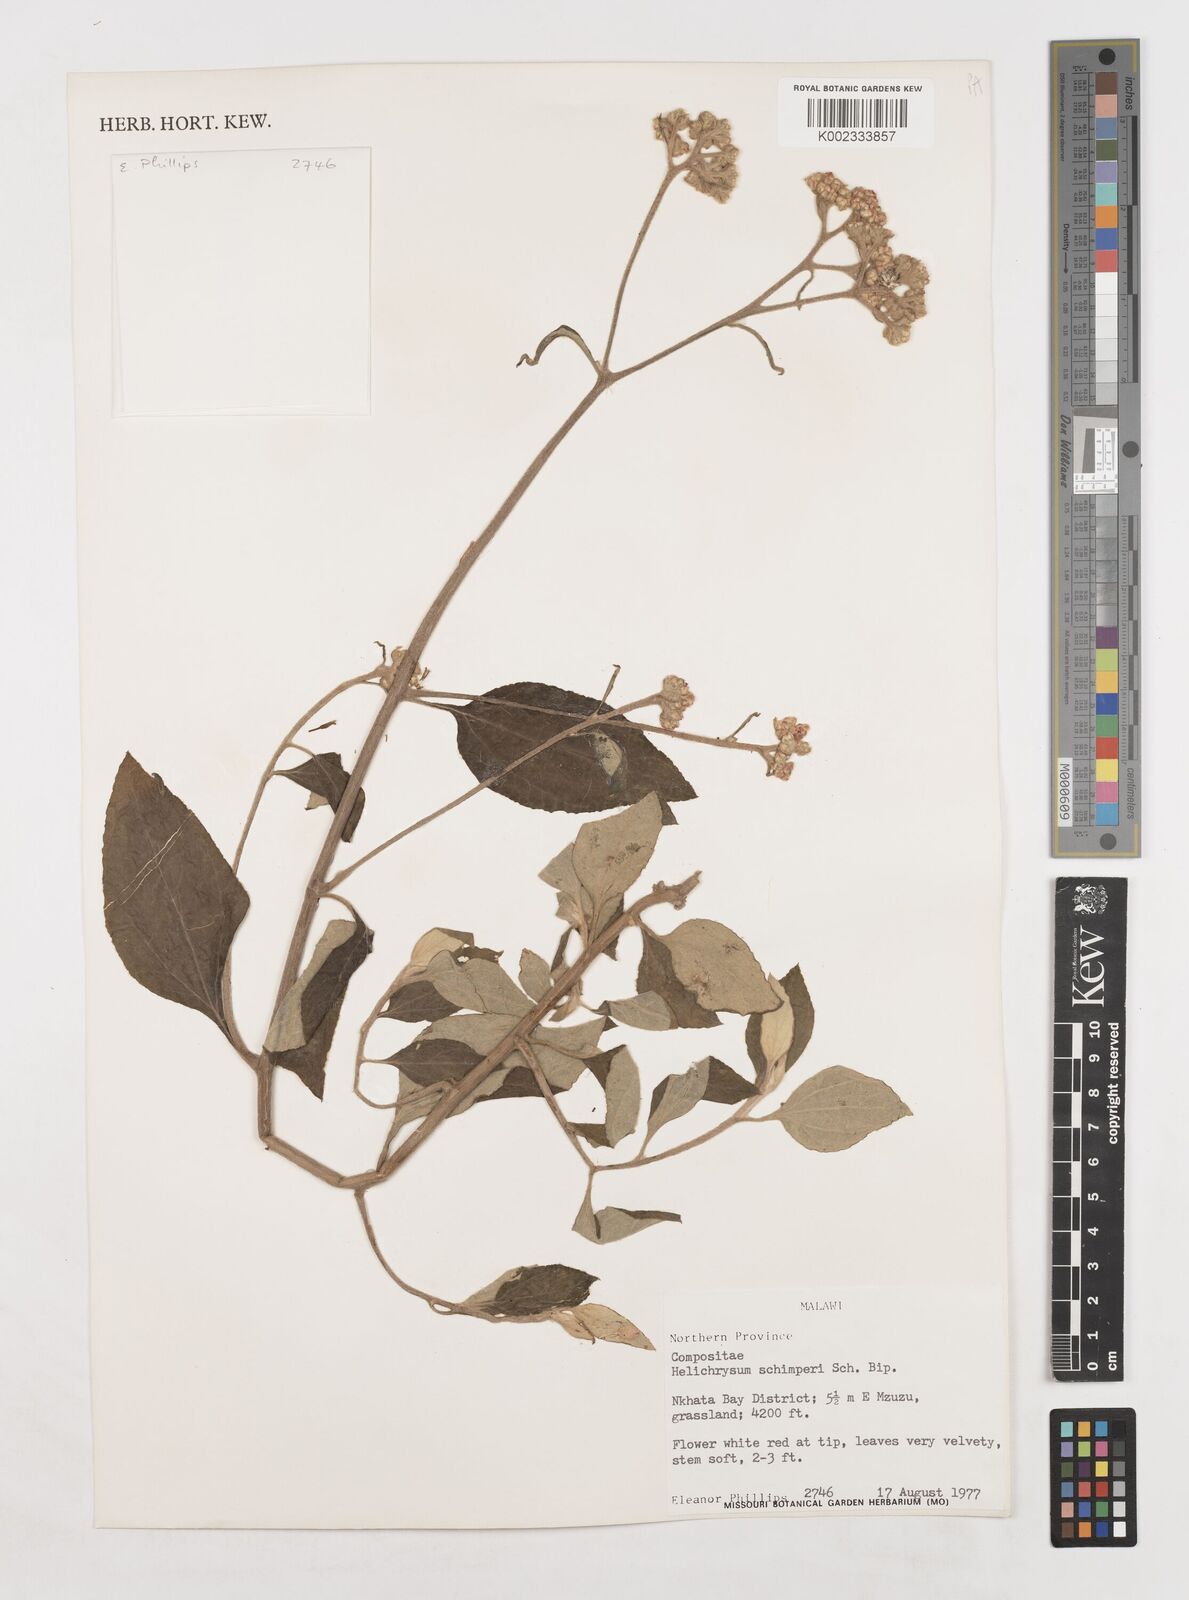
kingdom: Plantae
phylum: Tracheophyta
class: Magnoliopsida
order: Asterales
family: Asteraceae
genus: Helichrysum
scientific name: Helichrysum schimperi
